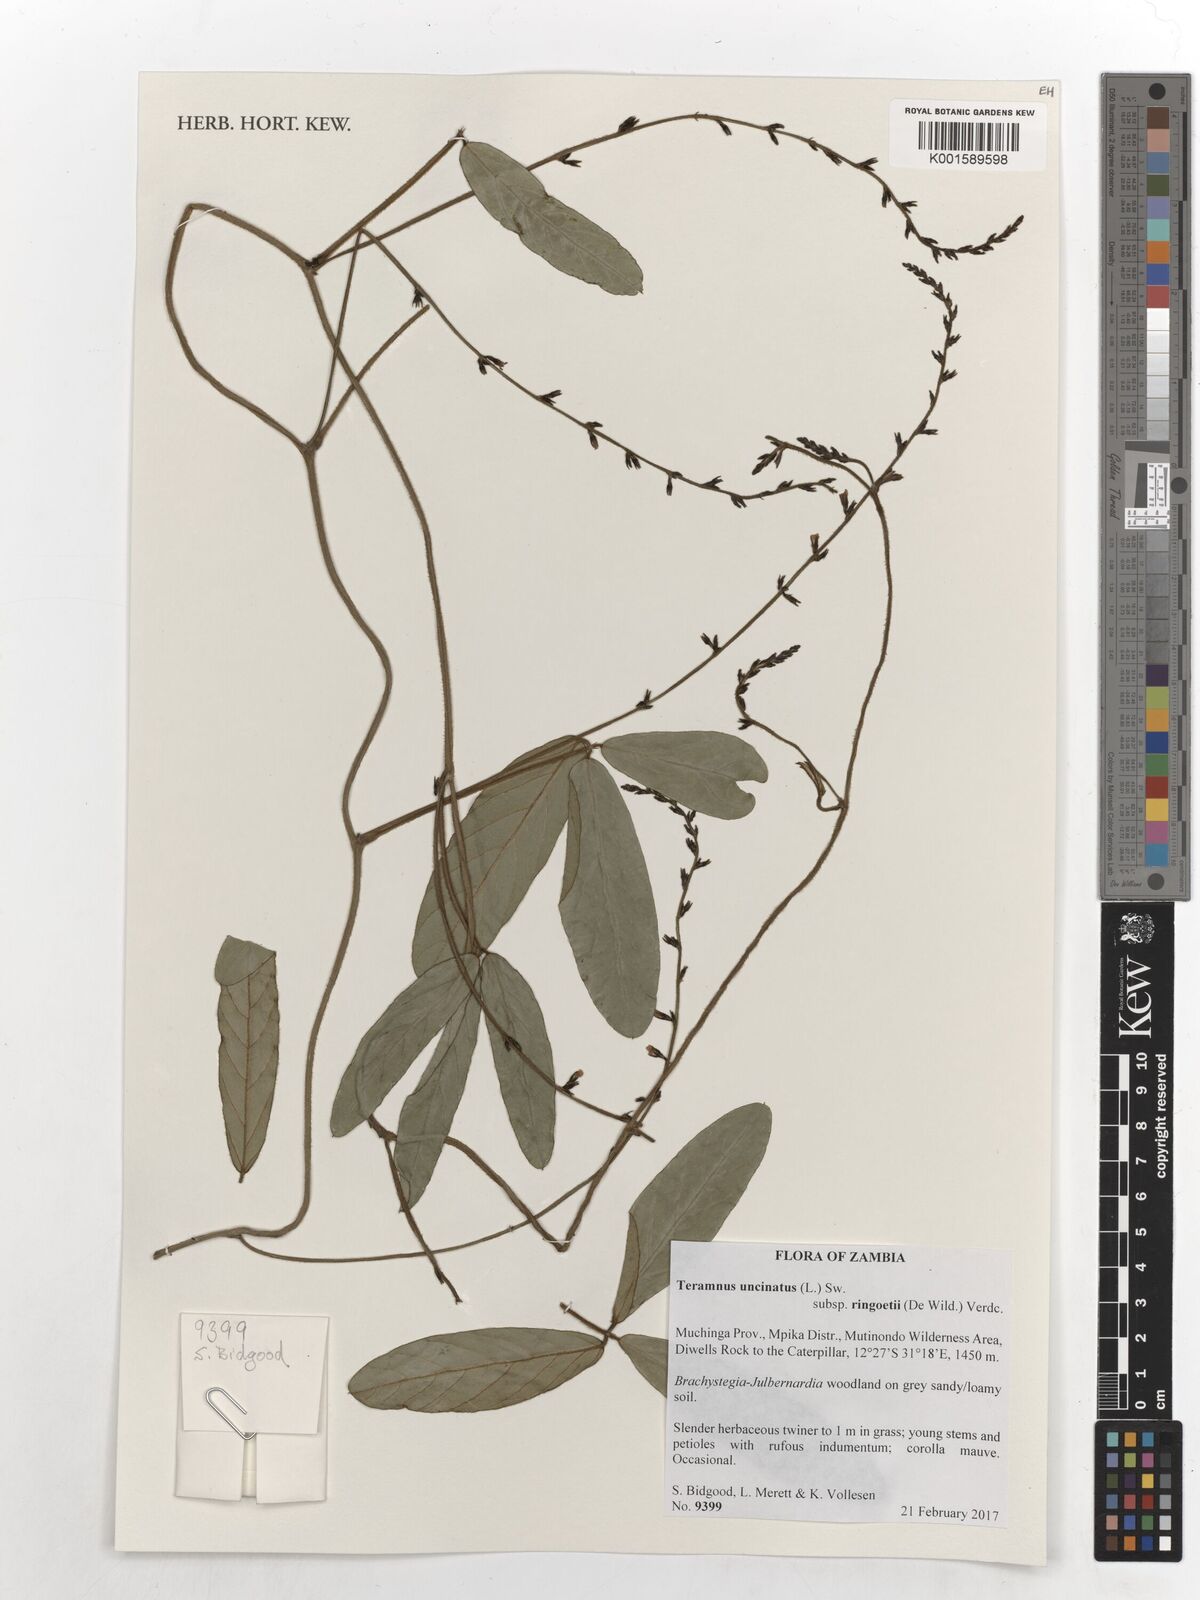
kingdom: Plantae
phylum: Tracheophyta
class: Magnoliopsida
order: Fabales
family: Fabaceae
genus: Teramnus
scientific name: Teramnus uncinatus
